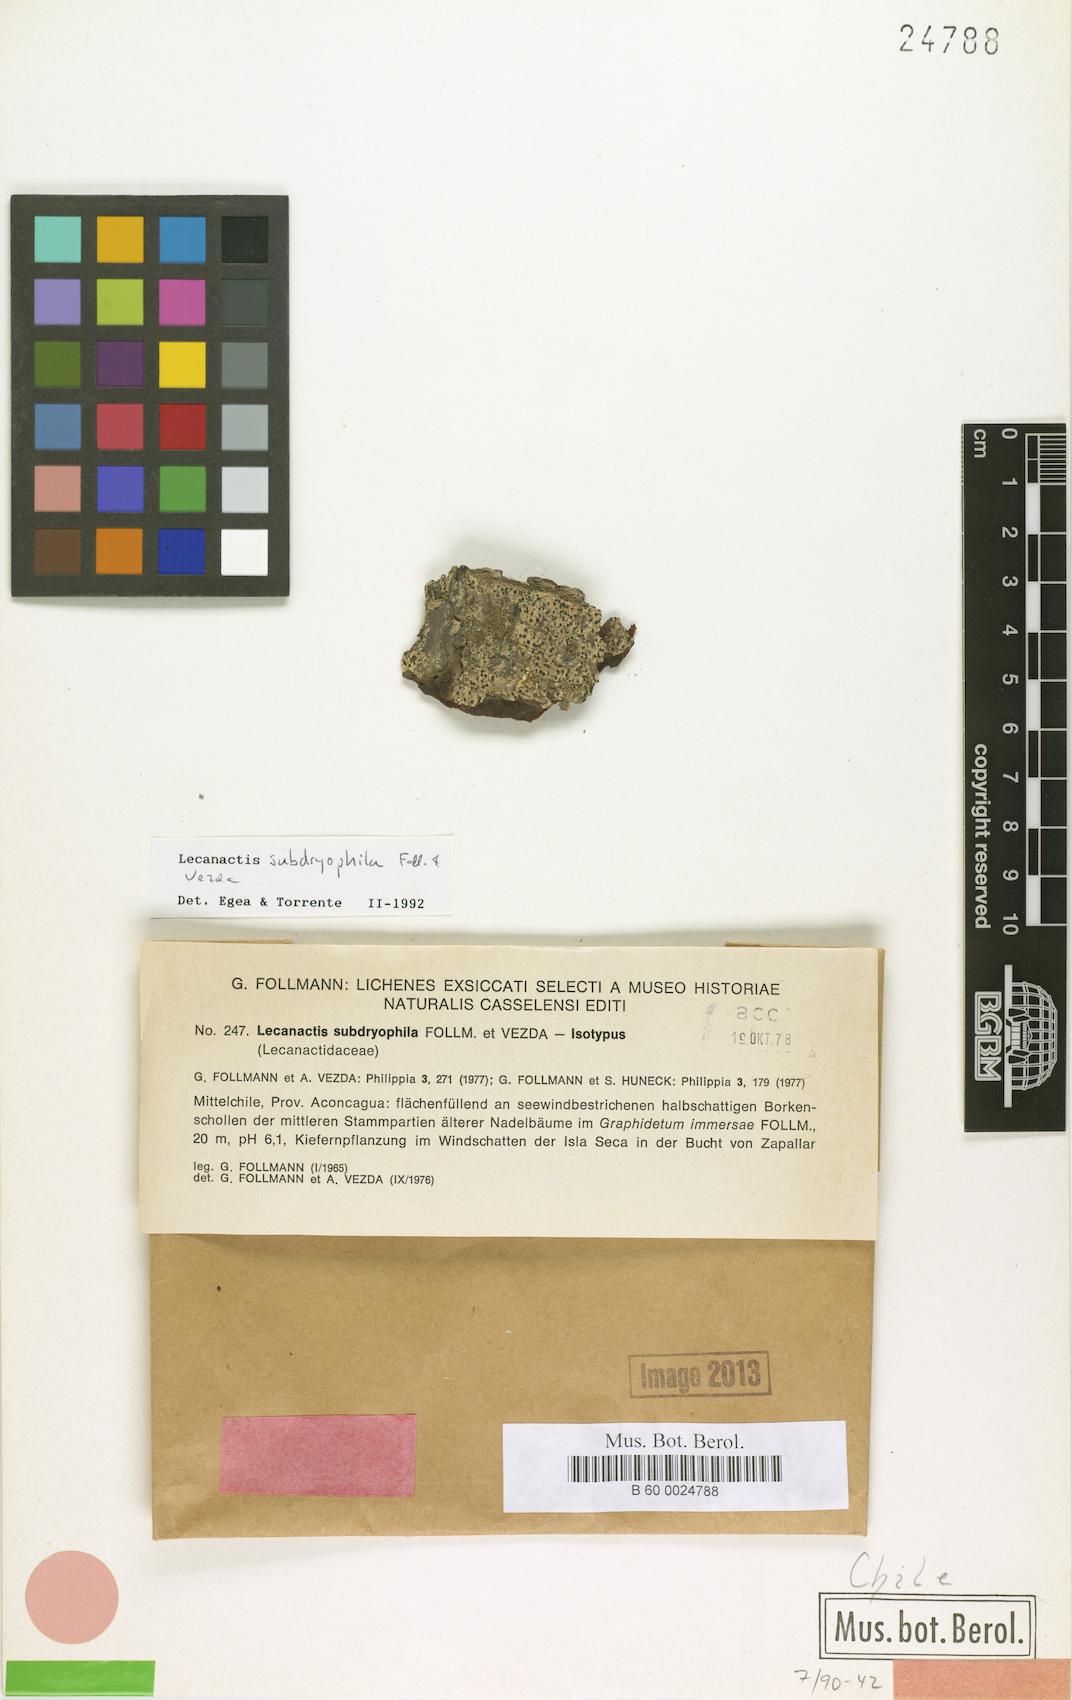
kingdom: Fungi
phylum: Ascomycota
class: Arthoniomycetes
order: Arthoniales
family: Lecanographaceae
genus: Lecanographa
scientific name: Lecanographa subdryophila
